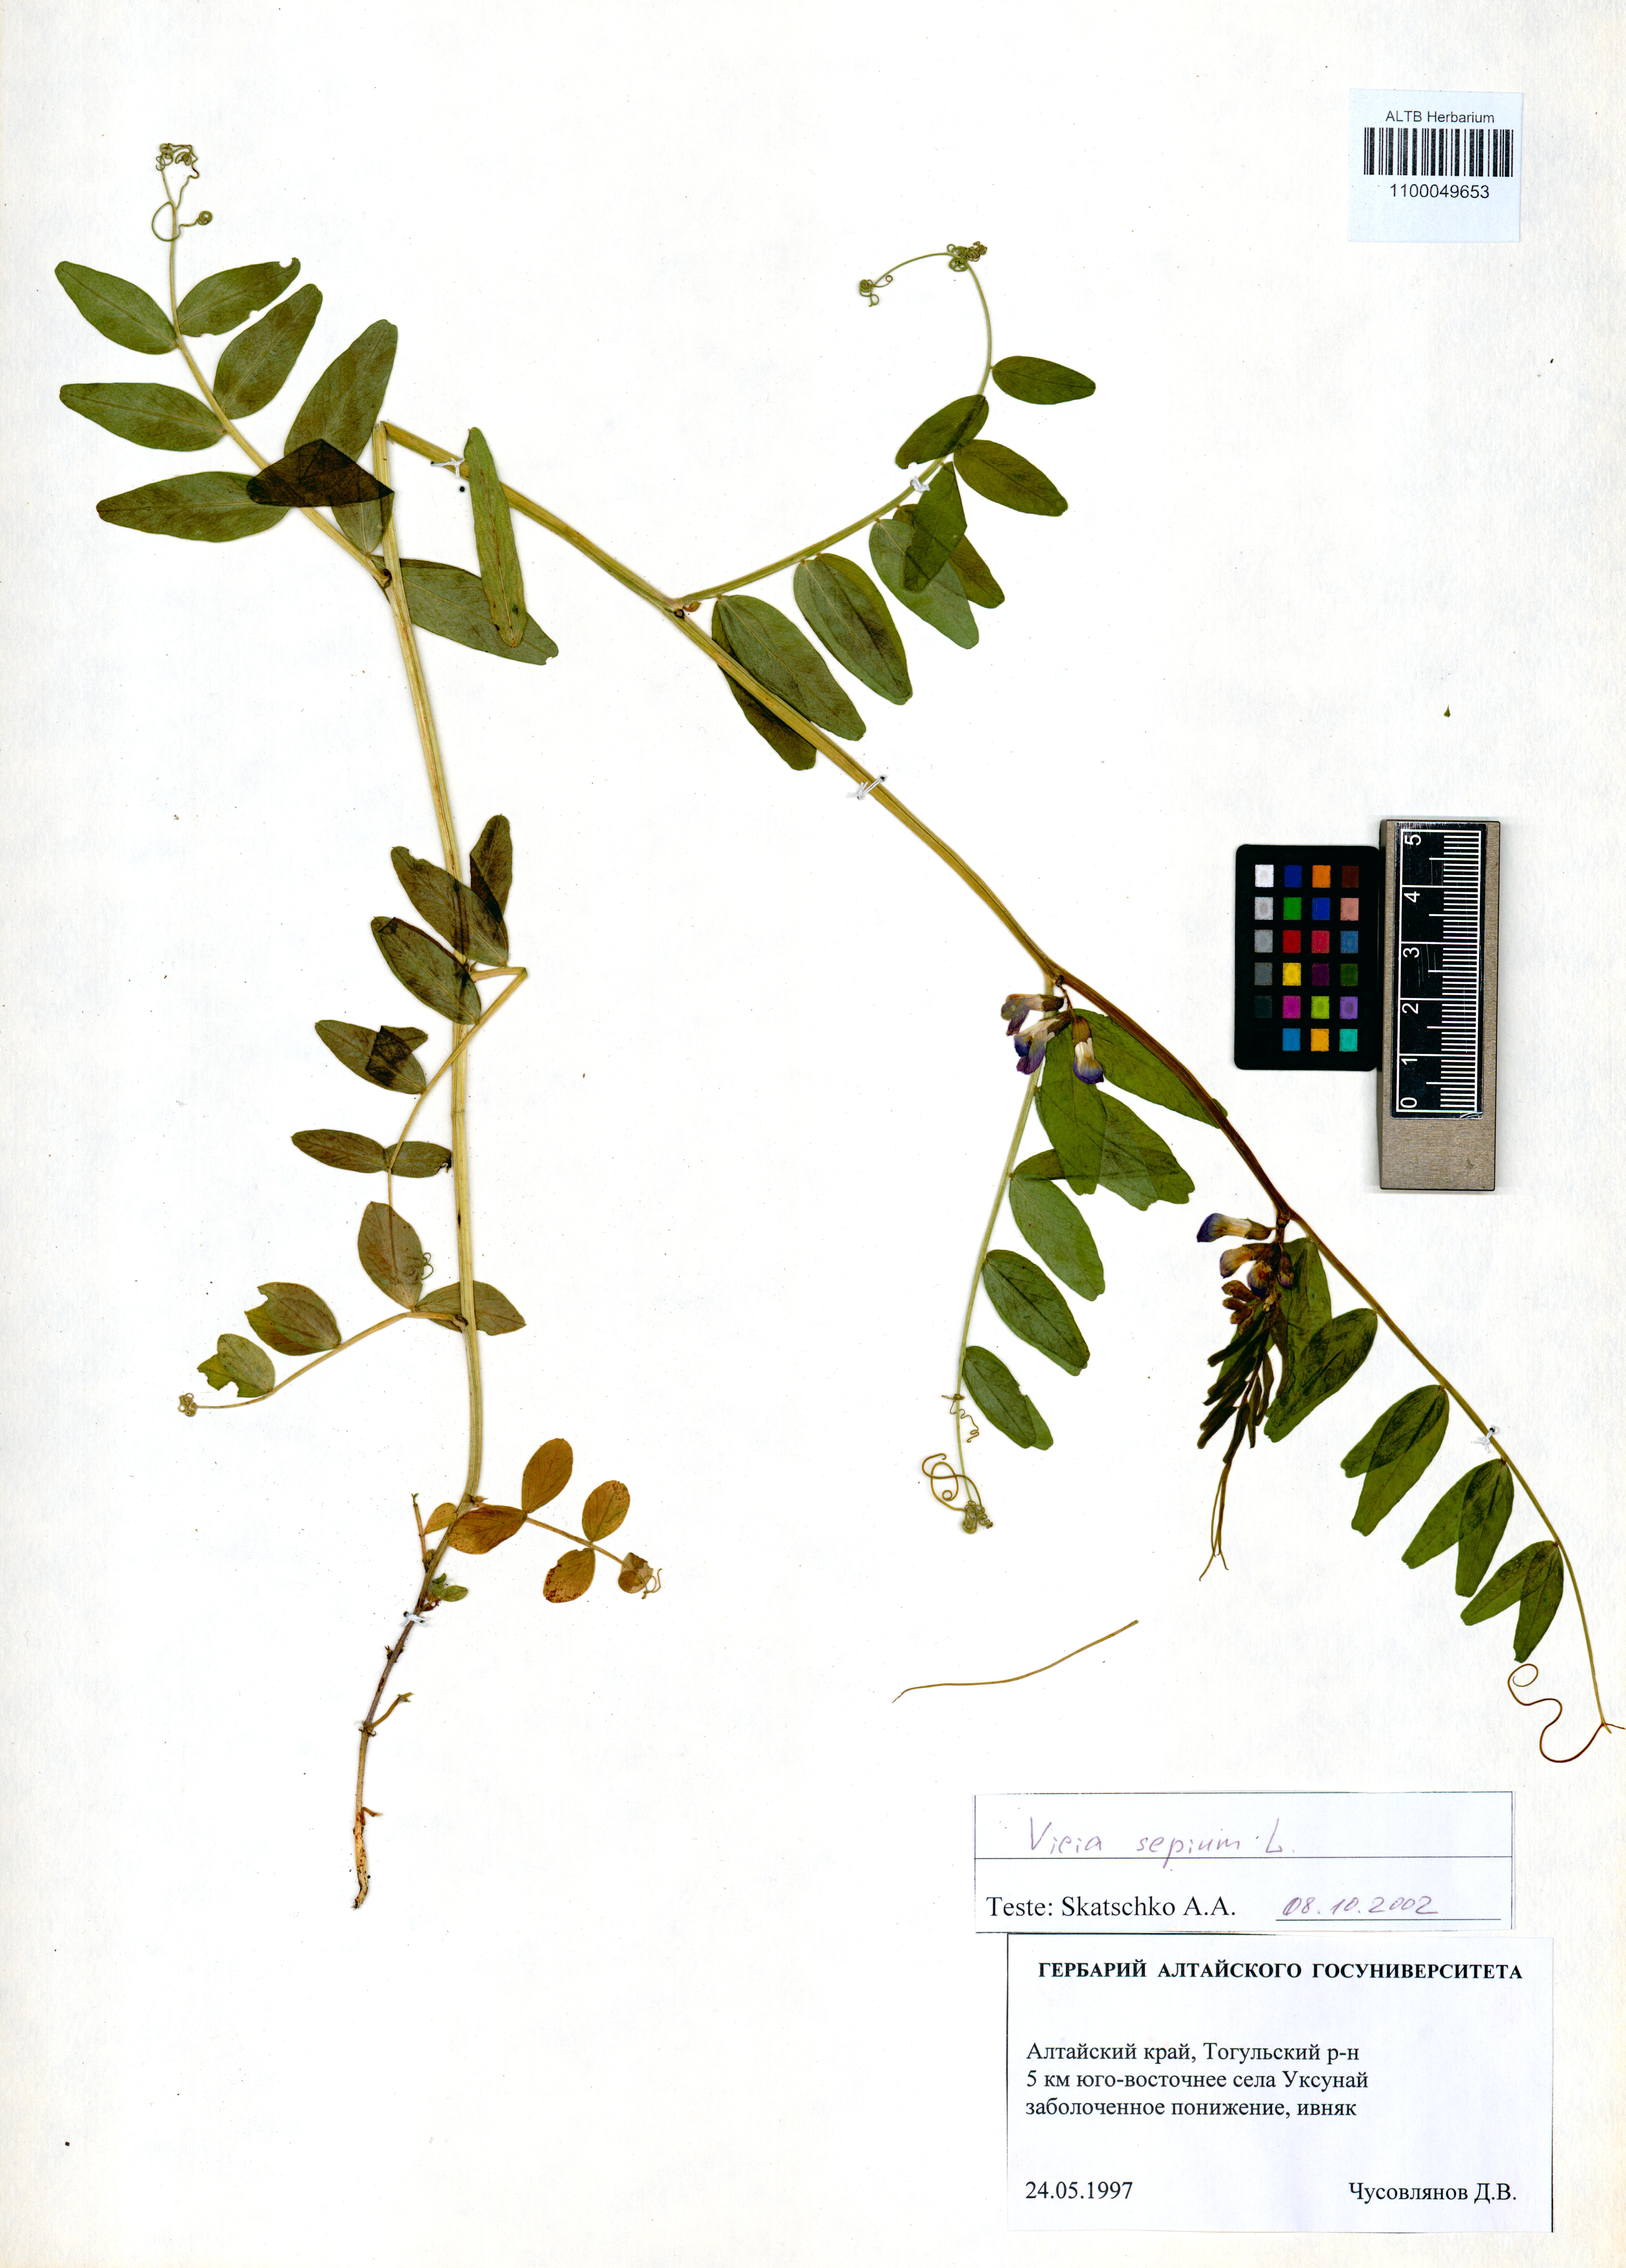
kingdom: Plantae
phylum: Tracheophyta
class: Magnoliopsida
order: Fabales
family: Fabaceae
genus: Vicia
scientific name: Vicia sepium
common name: Bush vetch
